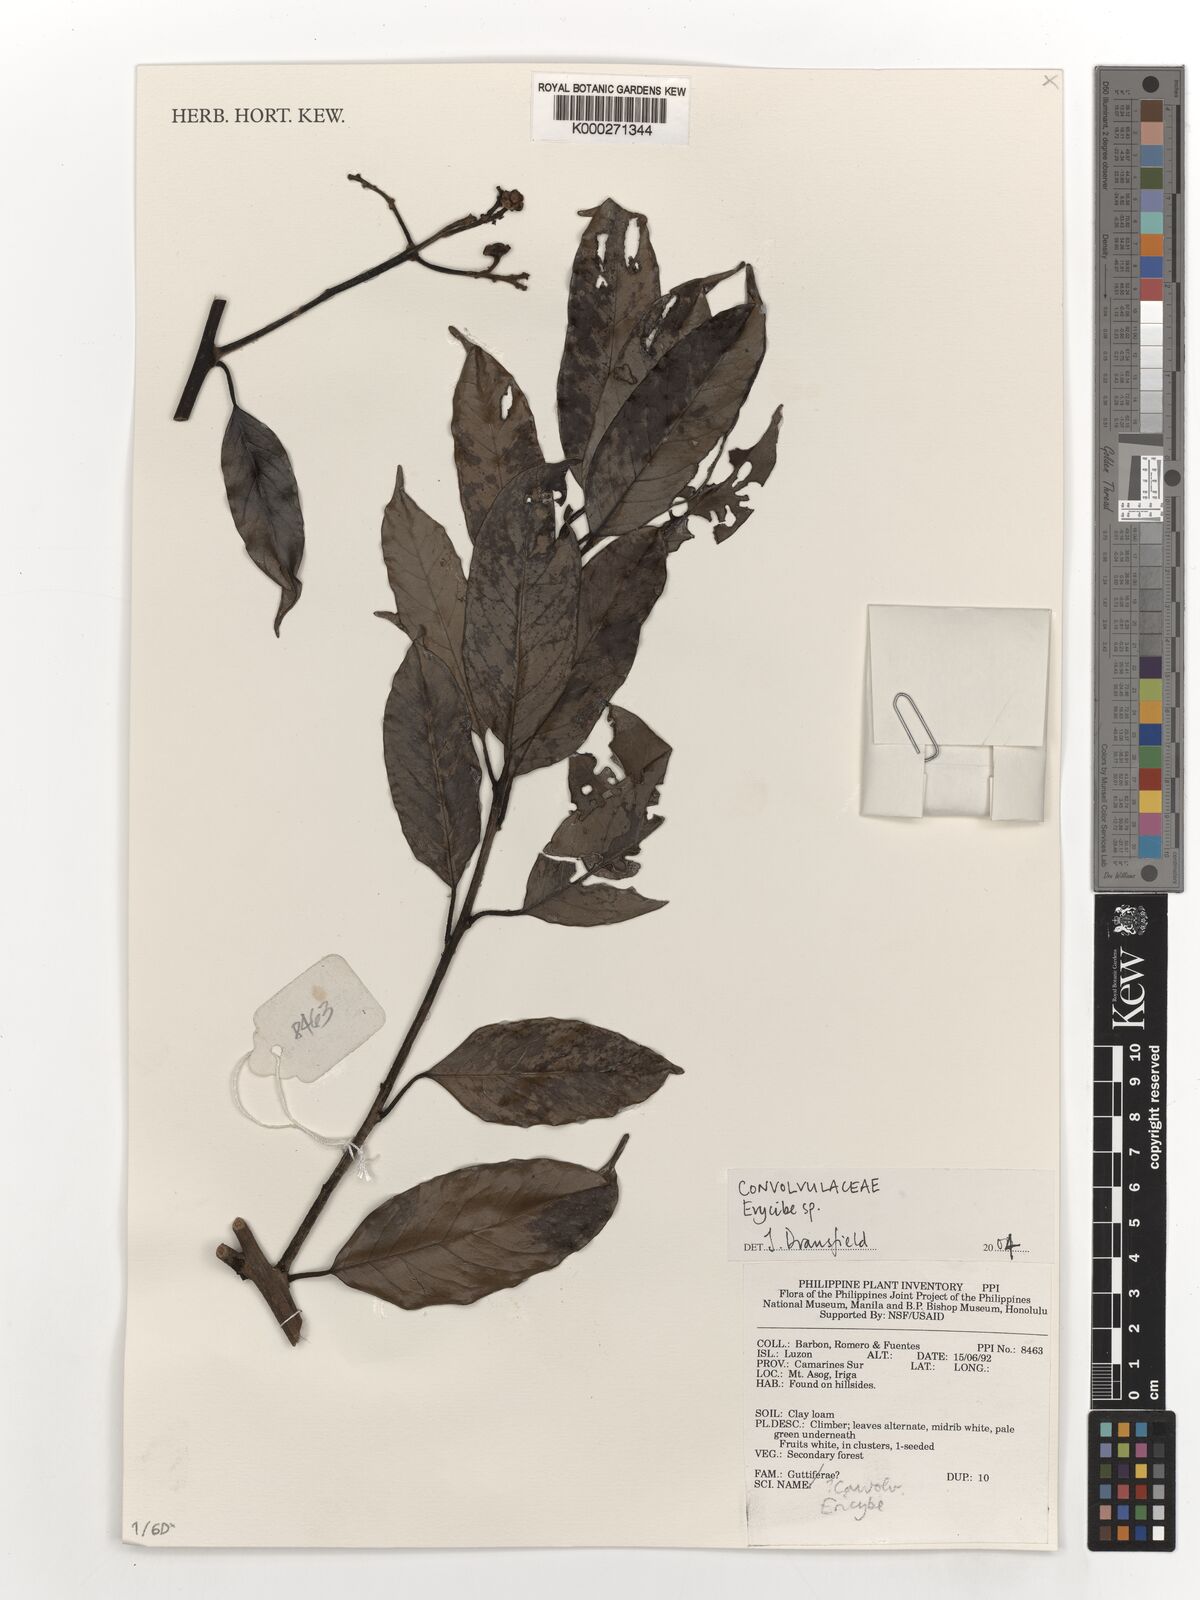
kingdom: Plantae
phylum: Tracheophyta
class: Magnoliopsida
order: Solanales
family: Convolvulaceae
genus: Erycibe
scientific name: Erycibe
